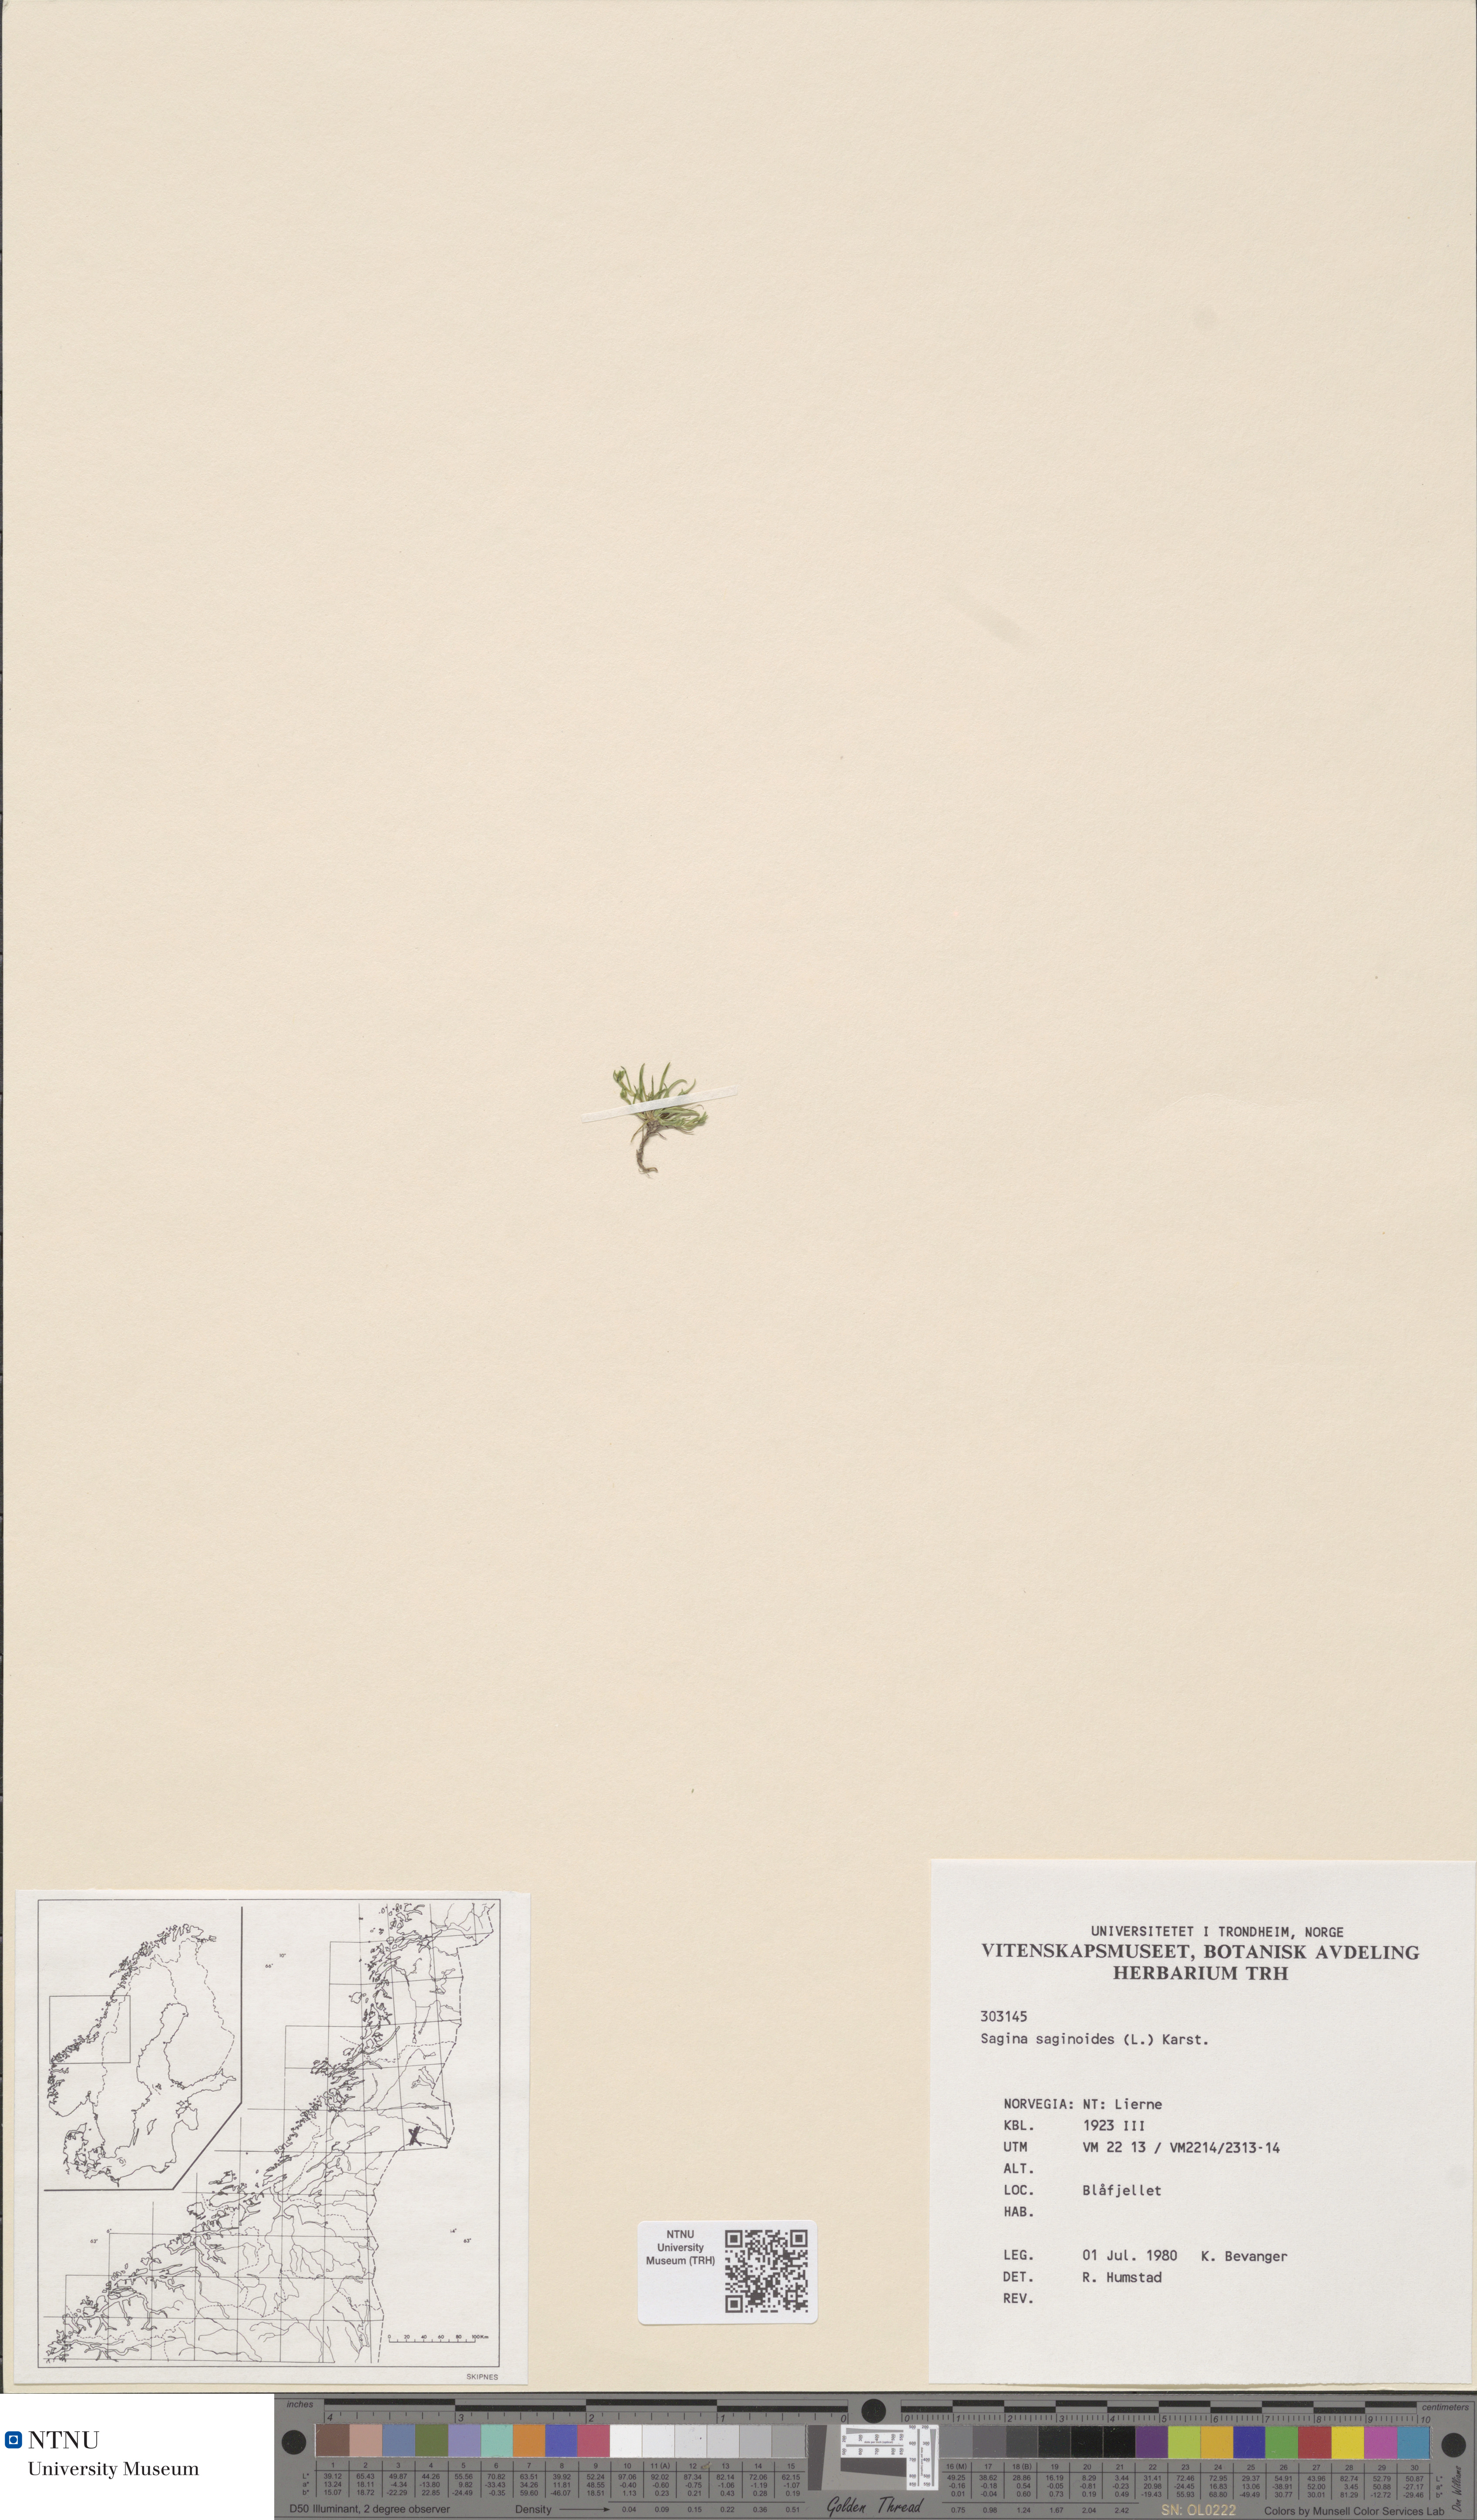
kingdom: Plantae
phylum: Tracheophyta
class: Magnoliopsida
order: Caryophyllales
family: Caryophyllaceae
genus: Sagina
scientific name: Sagina saginoides
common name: Alpine pearlwort
